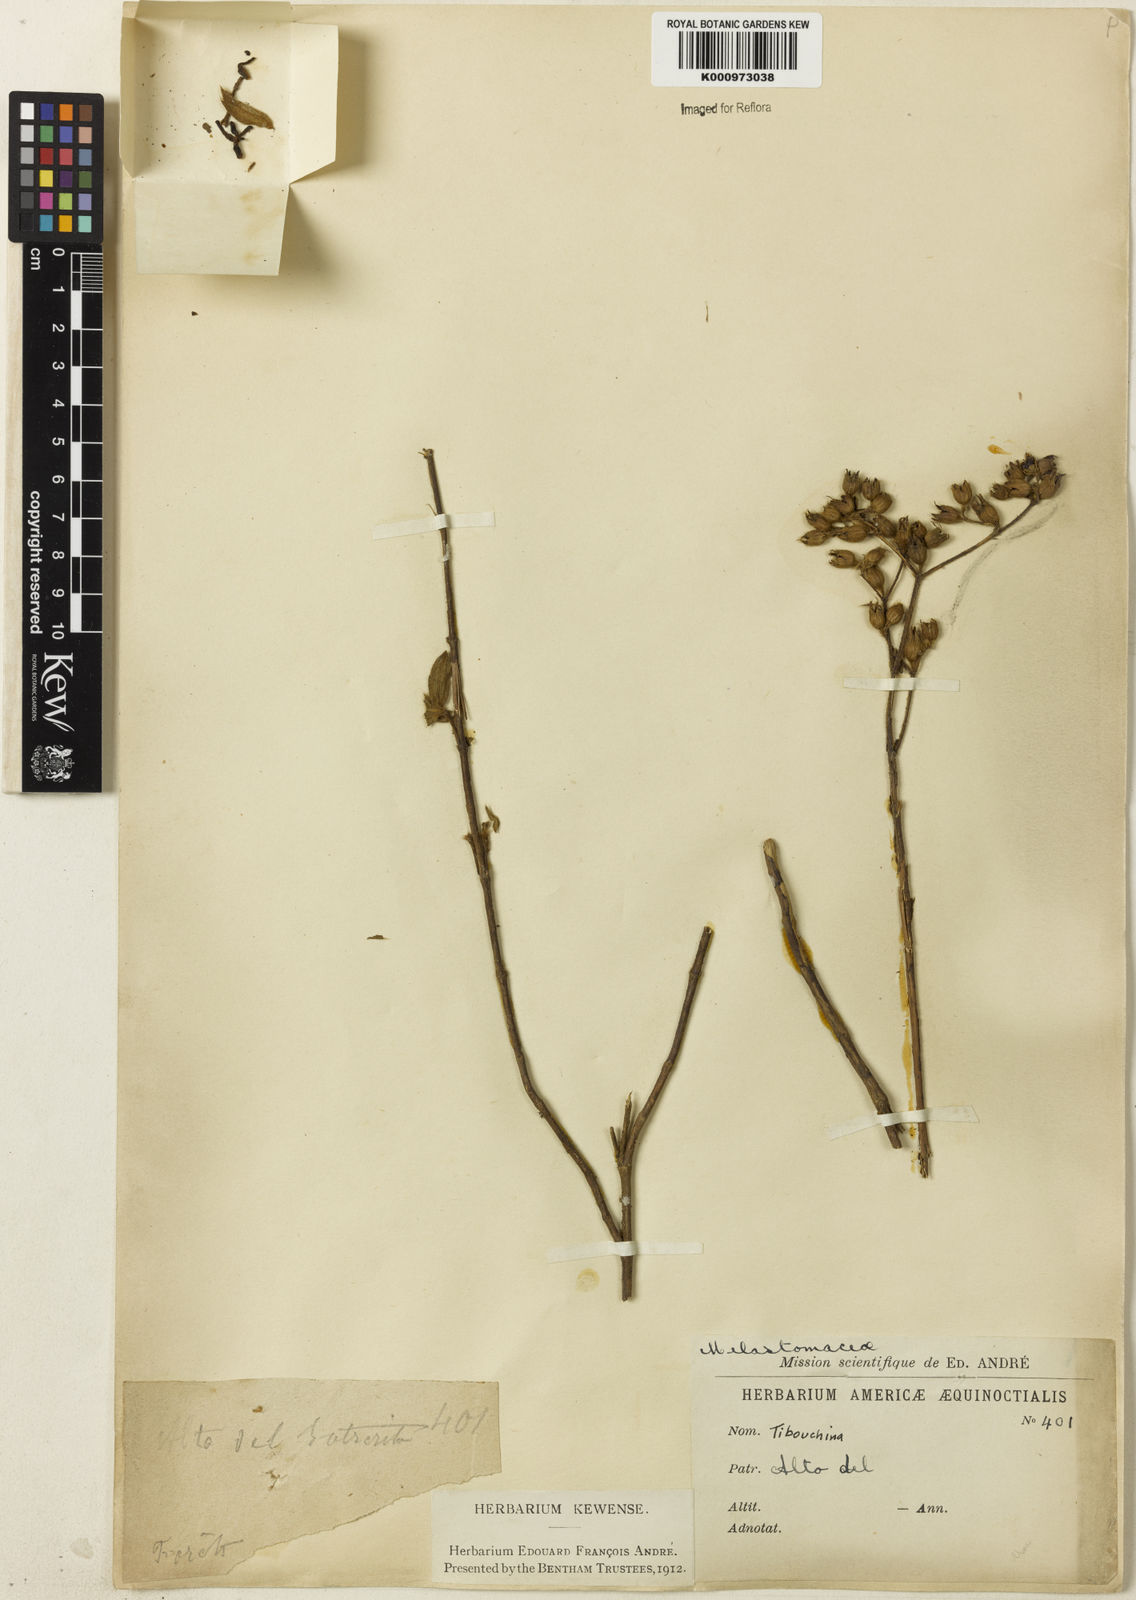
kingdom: Plantae
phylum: Tracheophyta
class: Magnoliopsida
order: Myrtales
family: Melastomataceae
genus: Tibouchina
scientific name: Tibouchina
